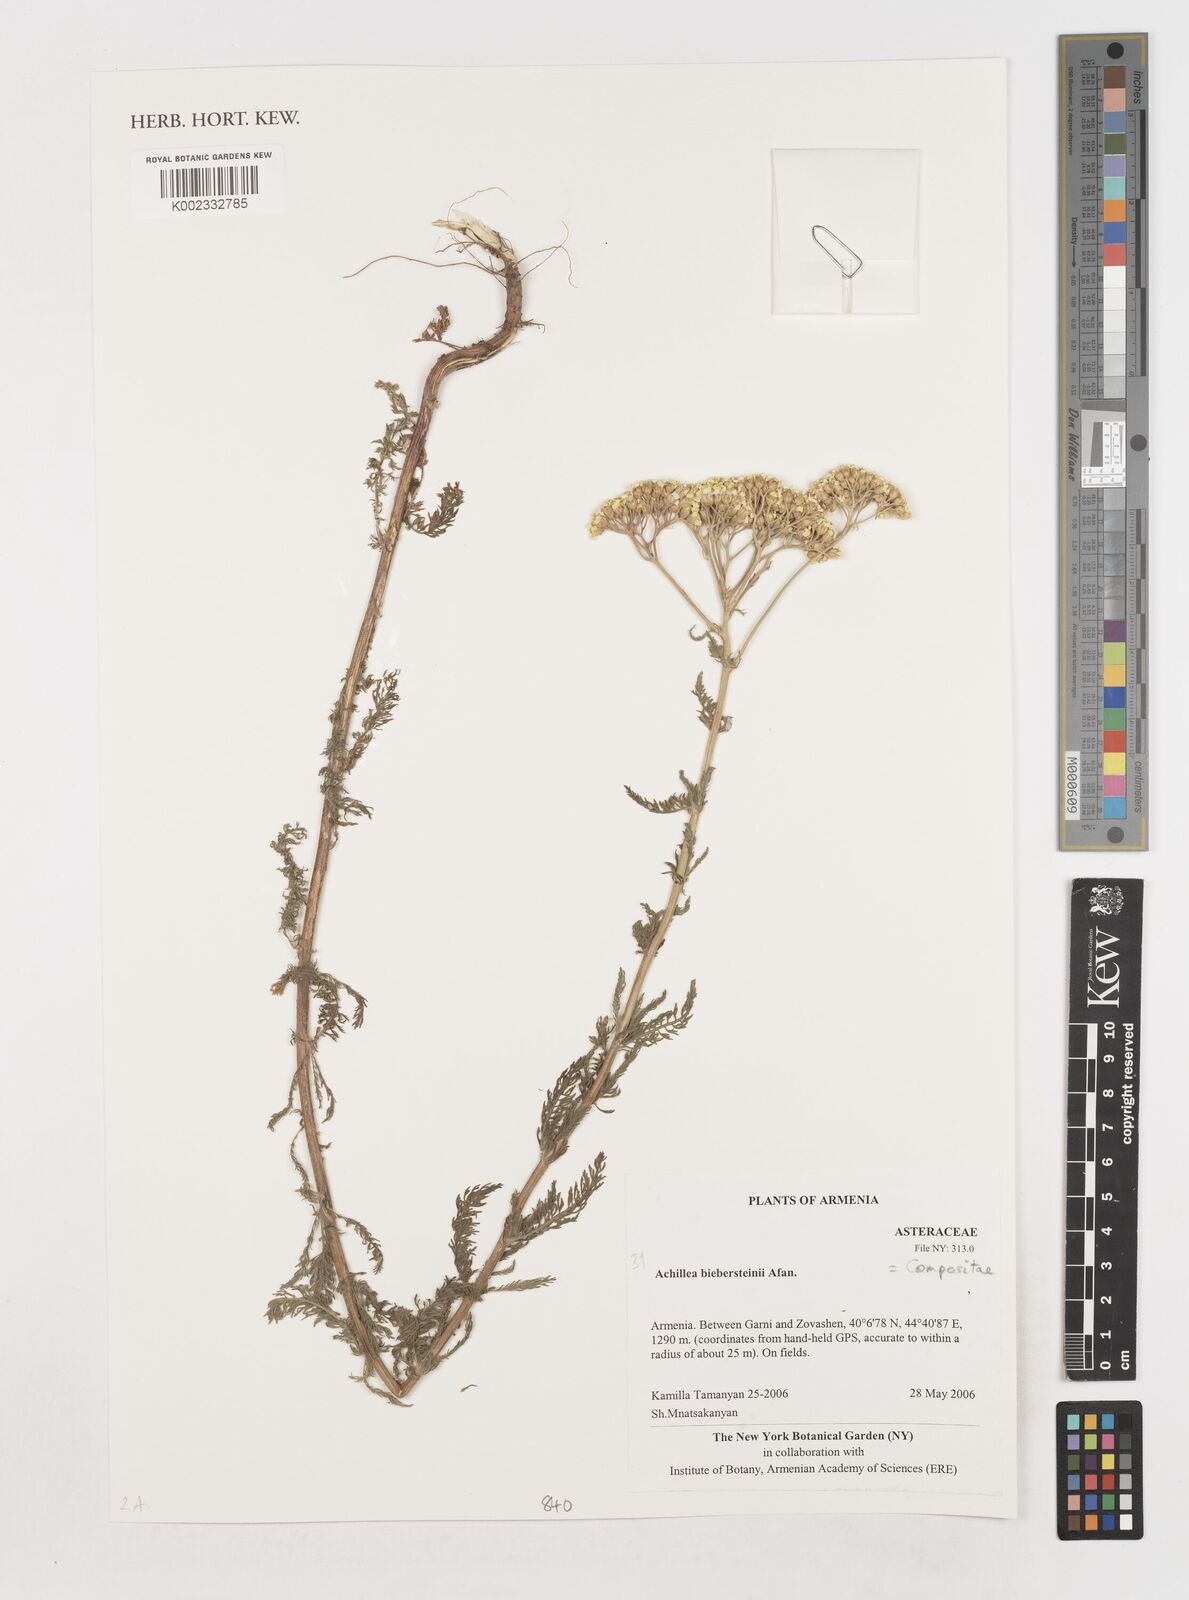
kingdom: Plantae
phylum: Tracheophyta
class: Magnoliopsida
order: Asterales
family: Asteraceae
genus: Achillea
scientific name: Achillea arabica
